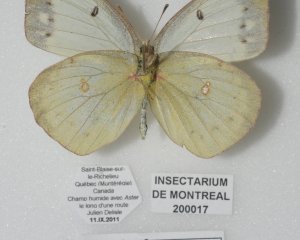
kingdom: Animalia
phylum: Arthropoda
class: Insecta
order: Lepidoptera
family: Pieridae
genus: Colias
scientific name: Colias philodice
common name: Clouded Sulphur
